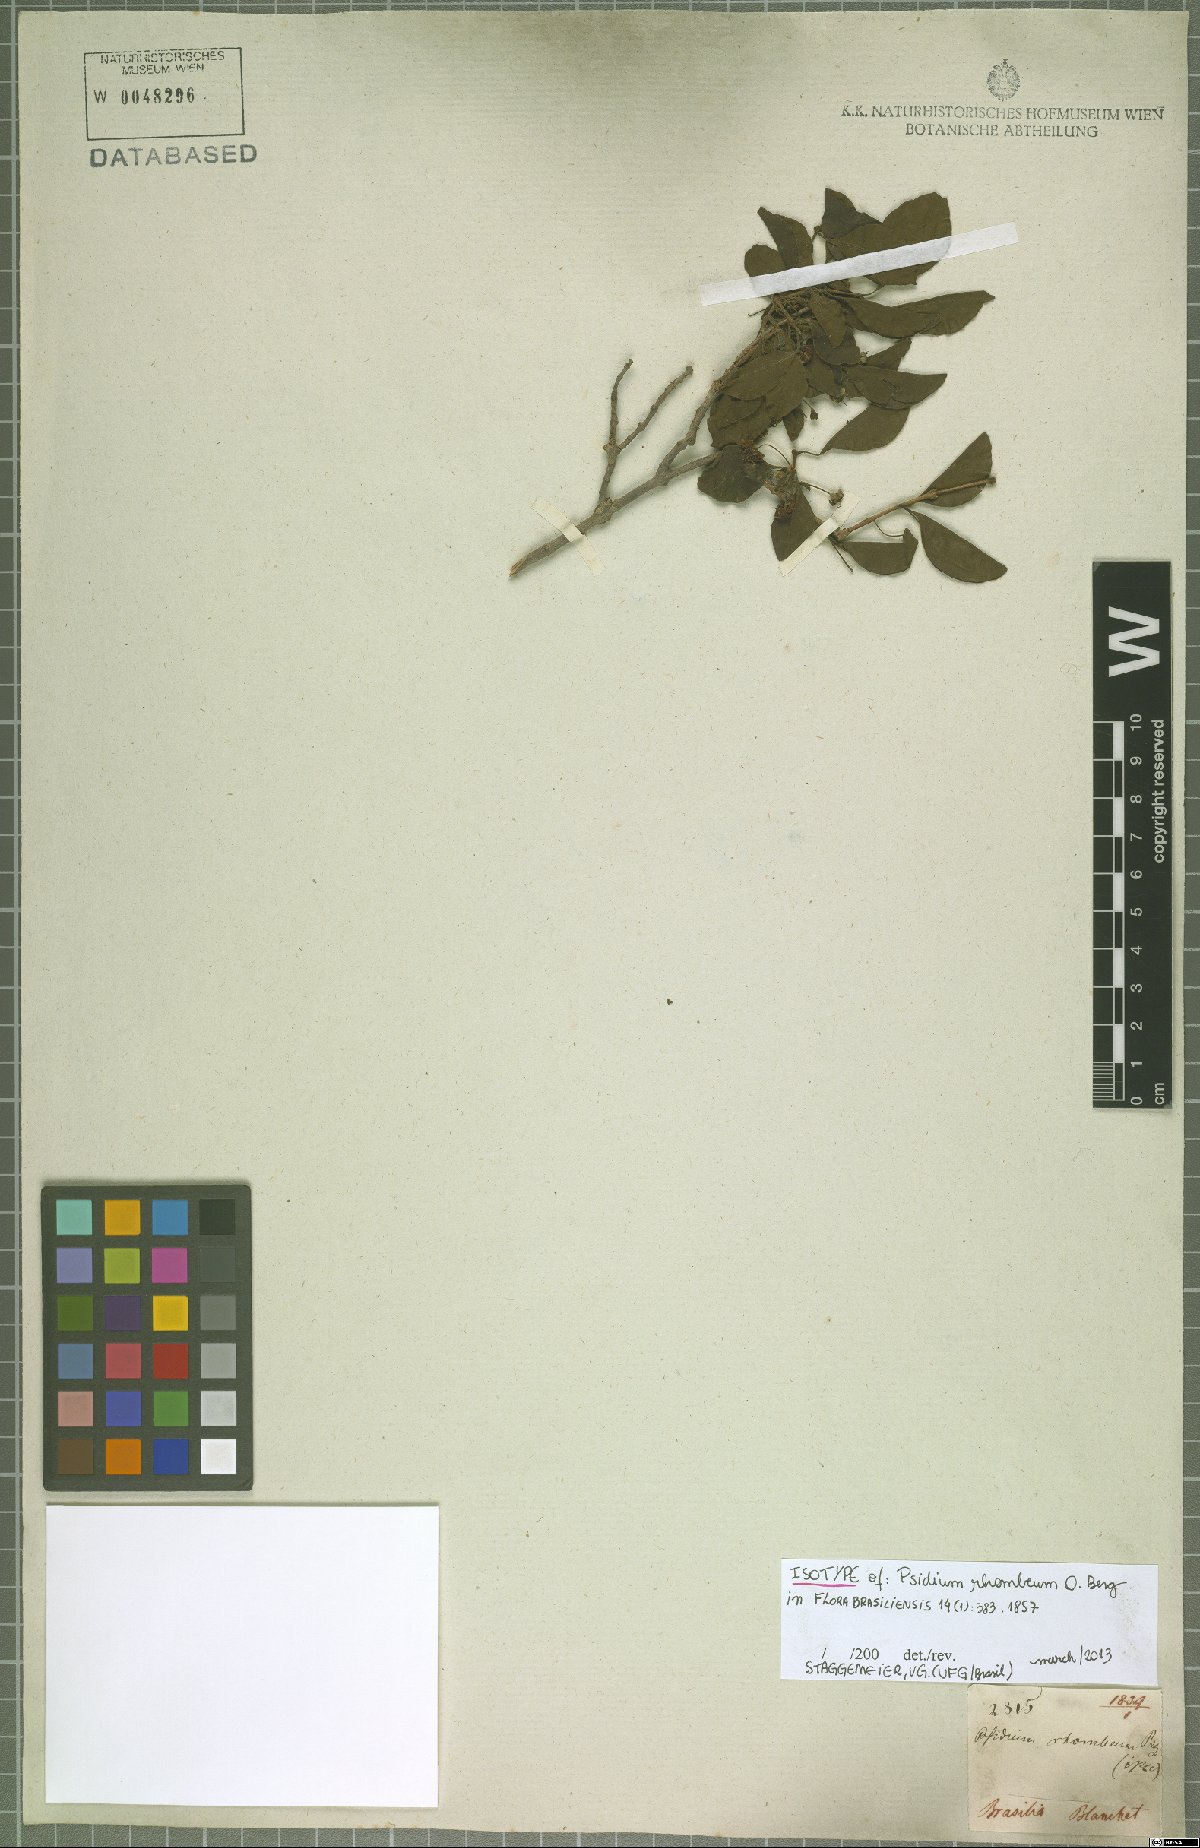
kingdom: Plantae
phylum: Tracheophyta
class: Magnoliopsida
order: Myrtales
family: Myrtaceae
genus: Psidium
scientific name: Psidium rhombeum
